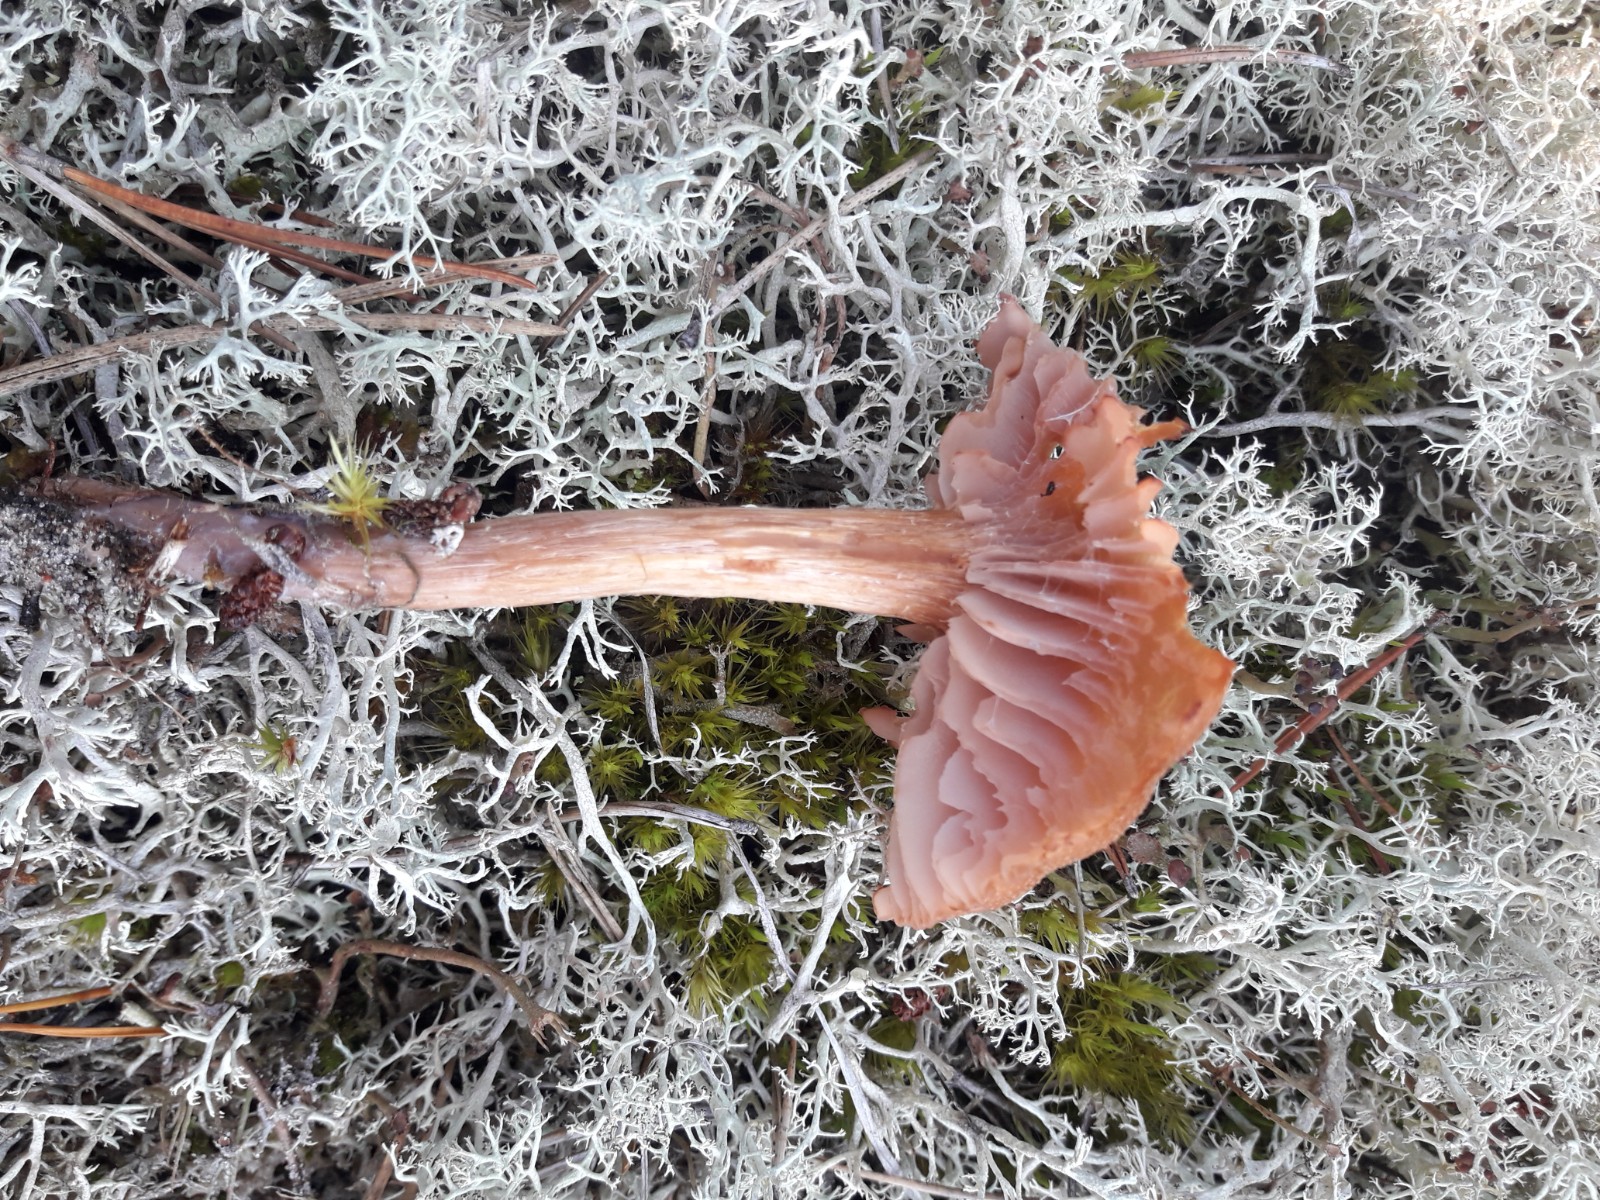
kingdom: Fungi
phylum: Basidiomycota
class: Agaricomycetes
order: Agaricales
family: Hydnangiaceae
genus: Laccaria
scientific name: Laccaria bicolor
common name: tvefarvet ametysthat
